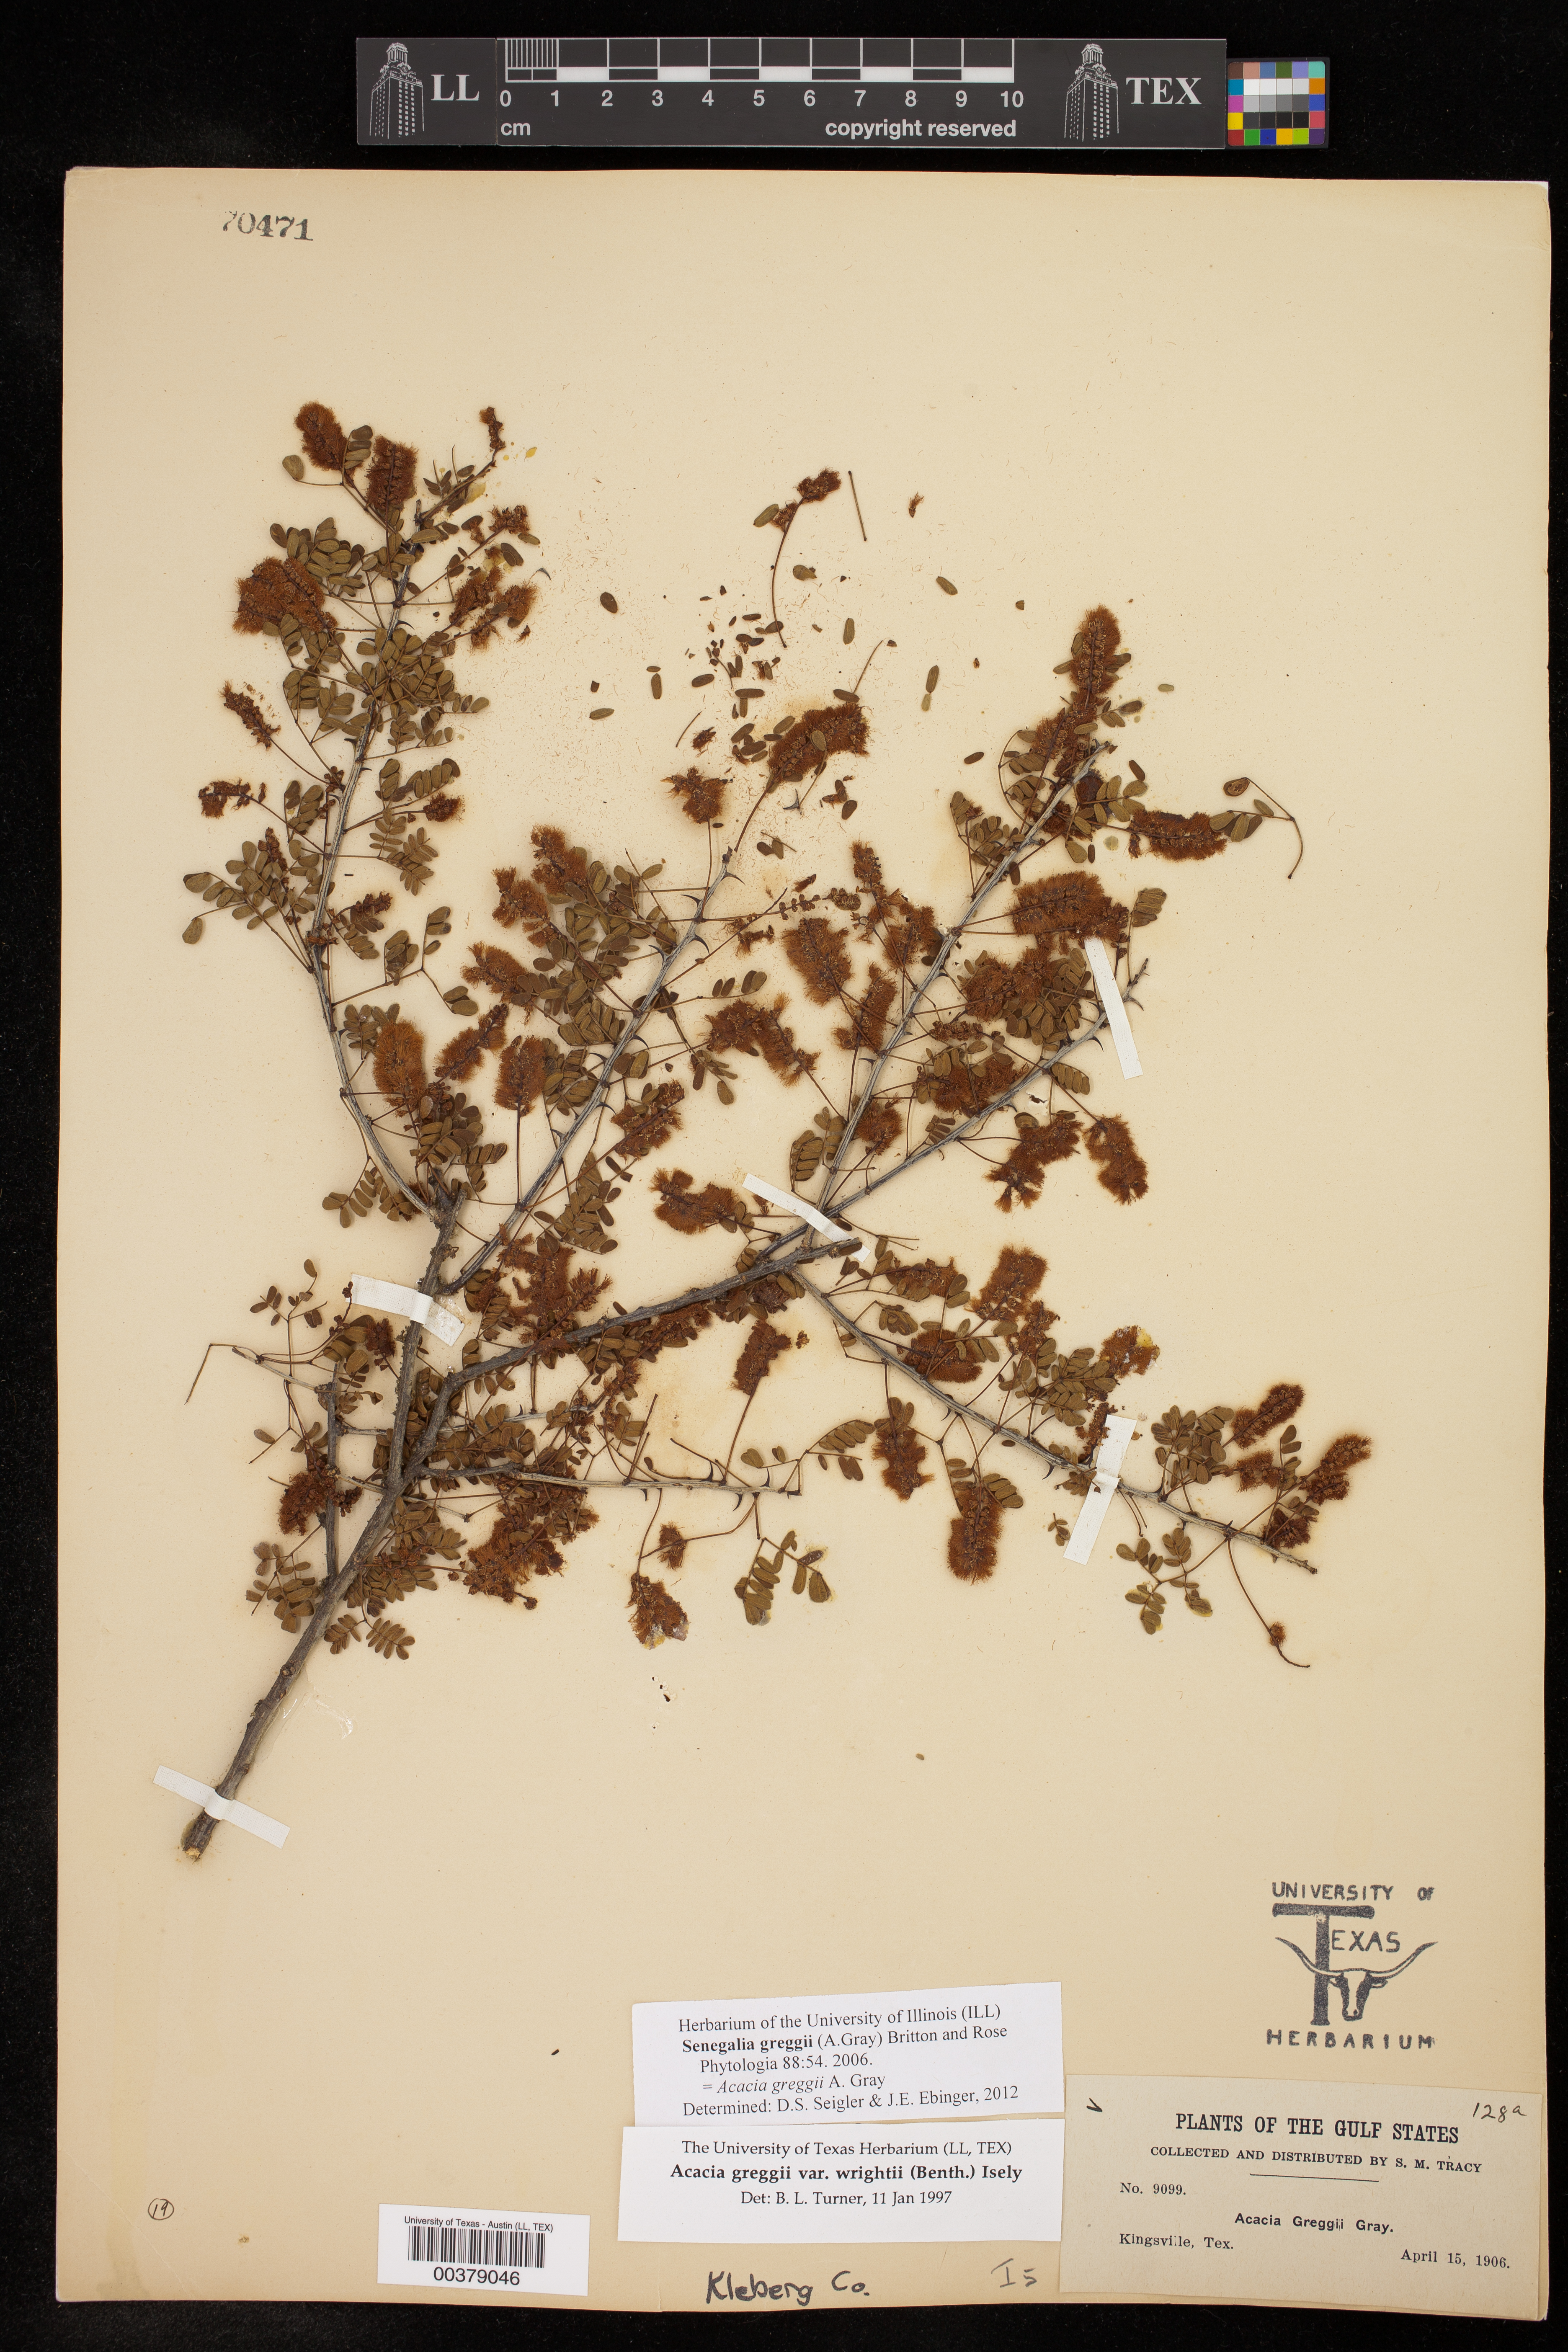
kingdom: Plantae
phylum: Tracheophyta
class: Magnoliopsida
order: Fabales
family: Fabaceae
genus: Senegalia
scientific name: Senegalia greggii
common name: Texas-mimosa
